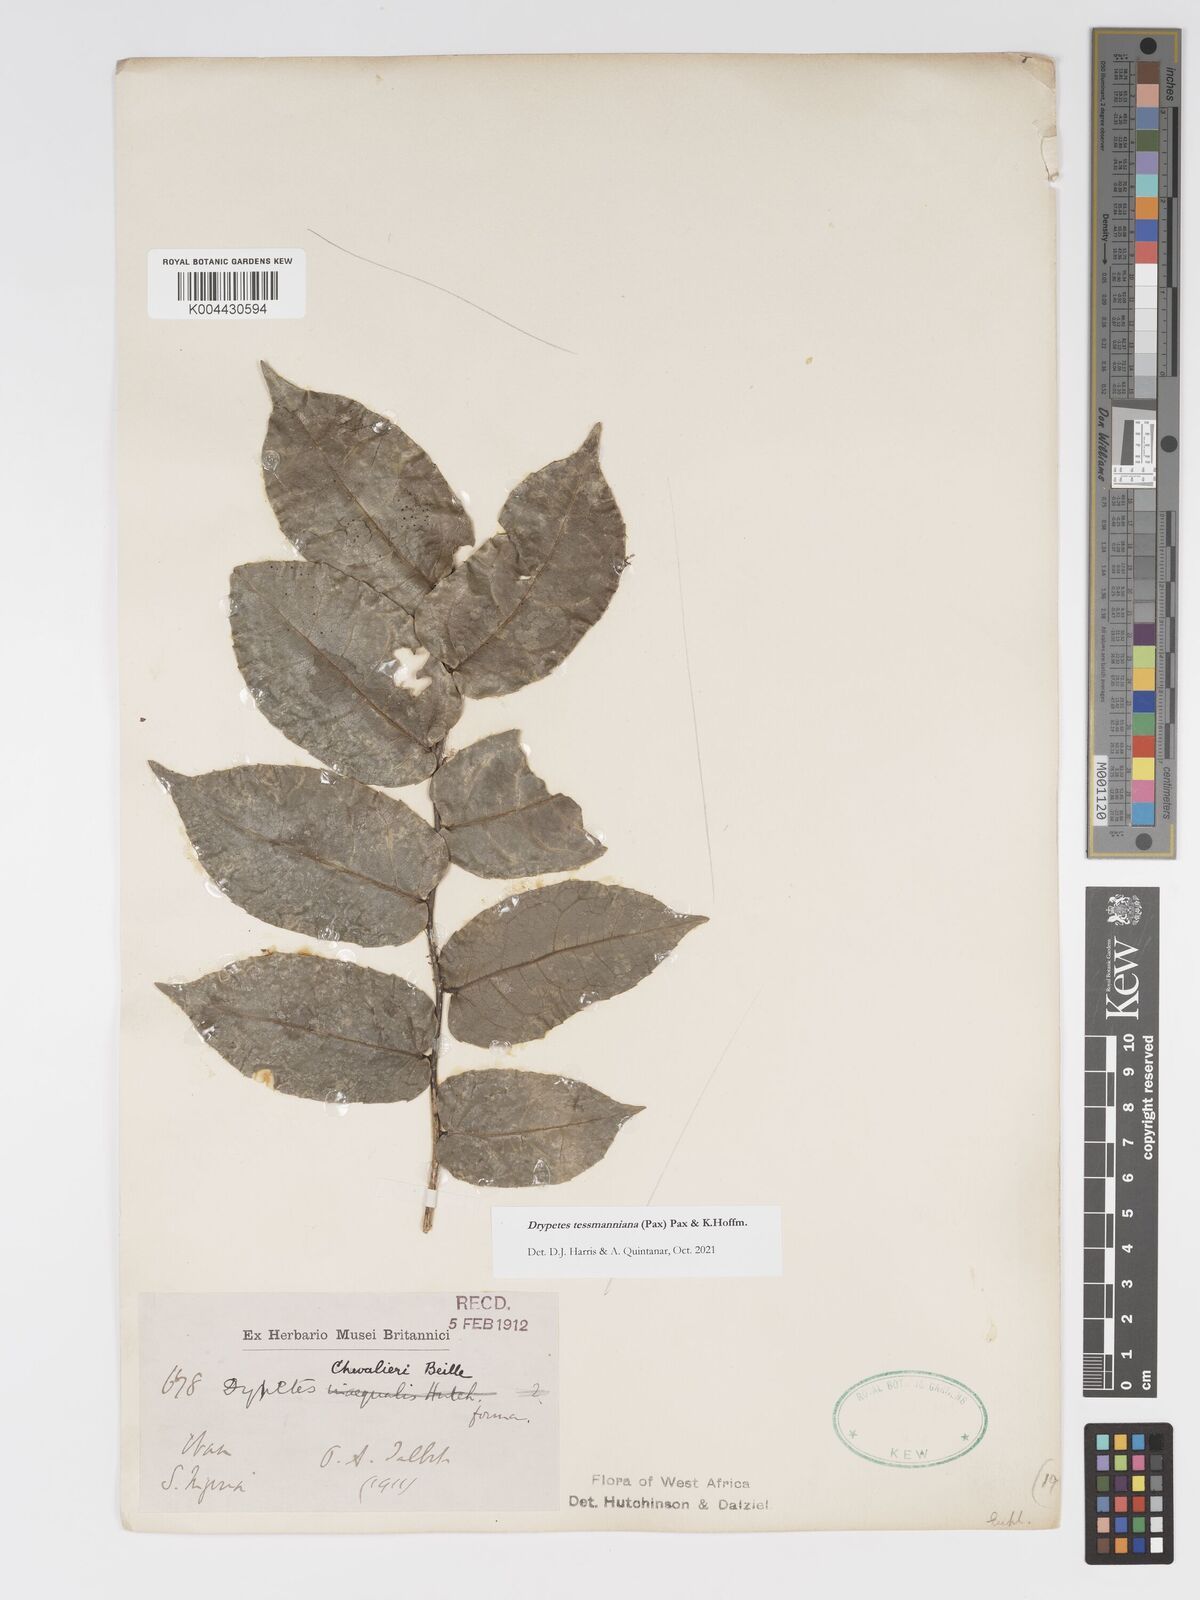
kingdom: Plantae
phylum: Tracheophyta
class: Magnoliopsida
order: Malpighiales
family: Putranjivaceae
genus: Drypetes
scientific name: Drypetes tessmanniana
